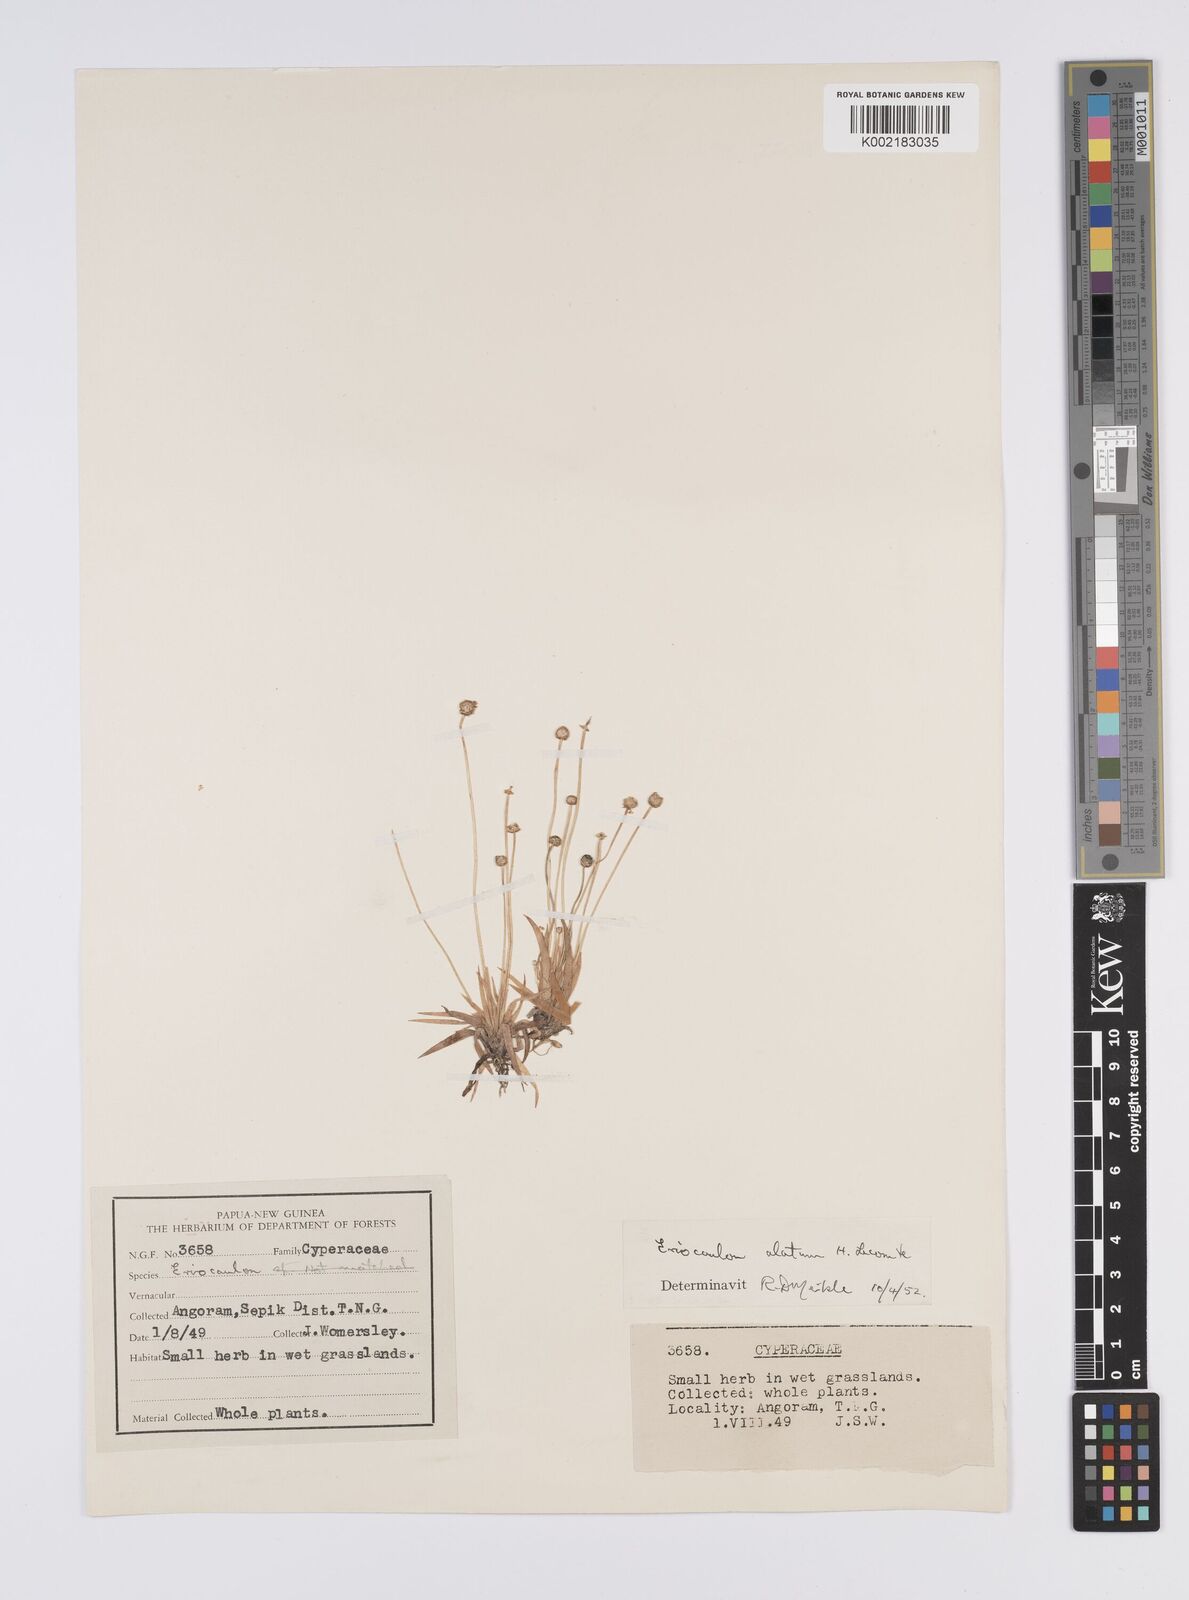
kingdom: Plantae
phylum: Tracheophyta
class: Liliopsida
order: Poales
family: Eriocaulaceae
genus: Eriocaulon
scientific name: Eriocaulon zollingerianum
